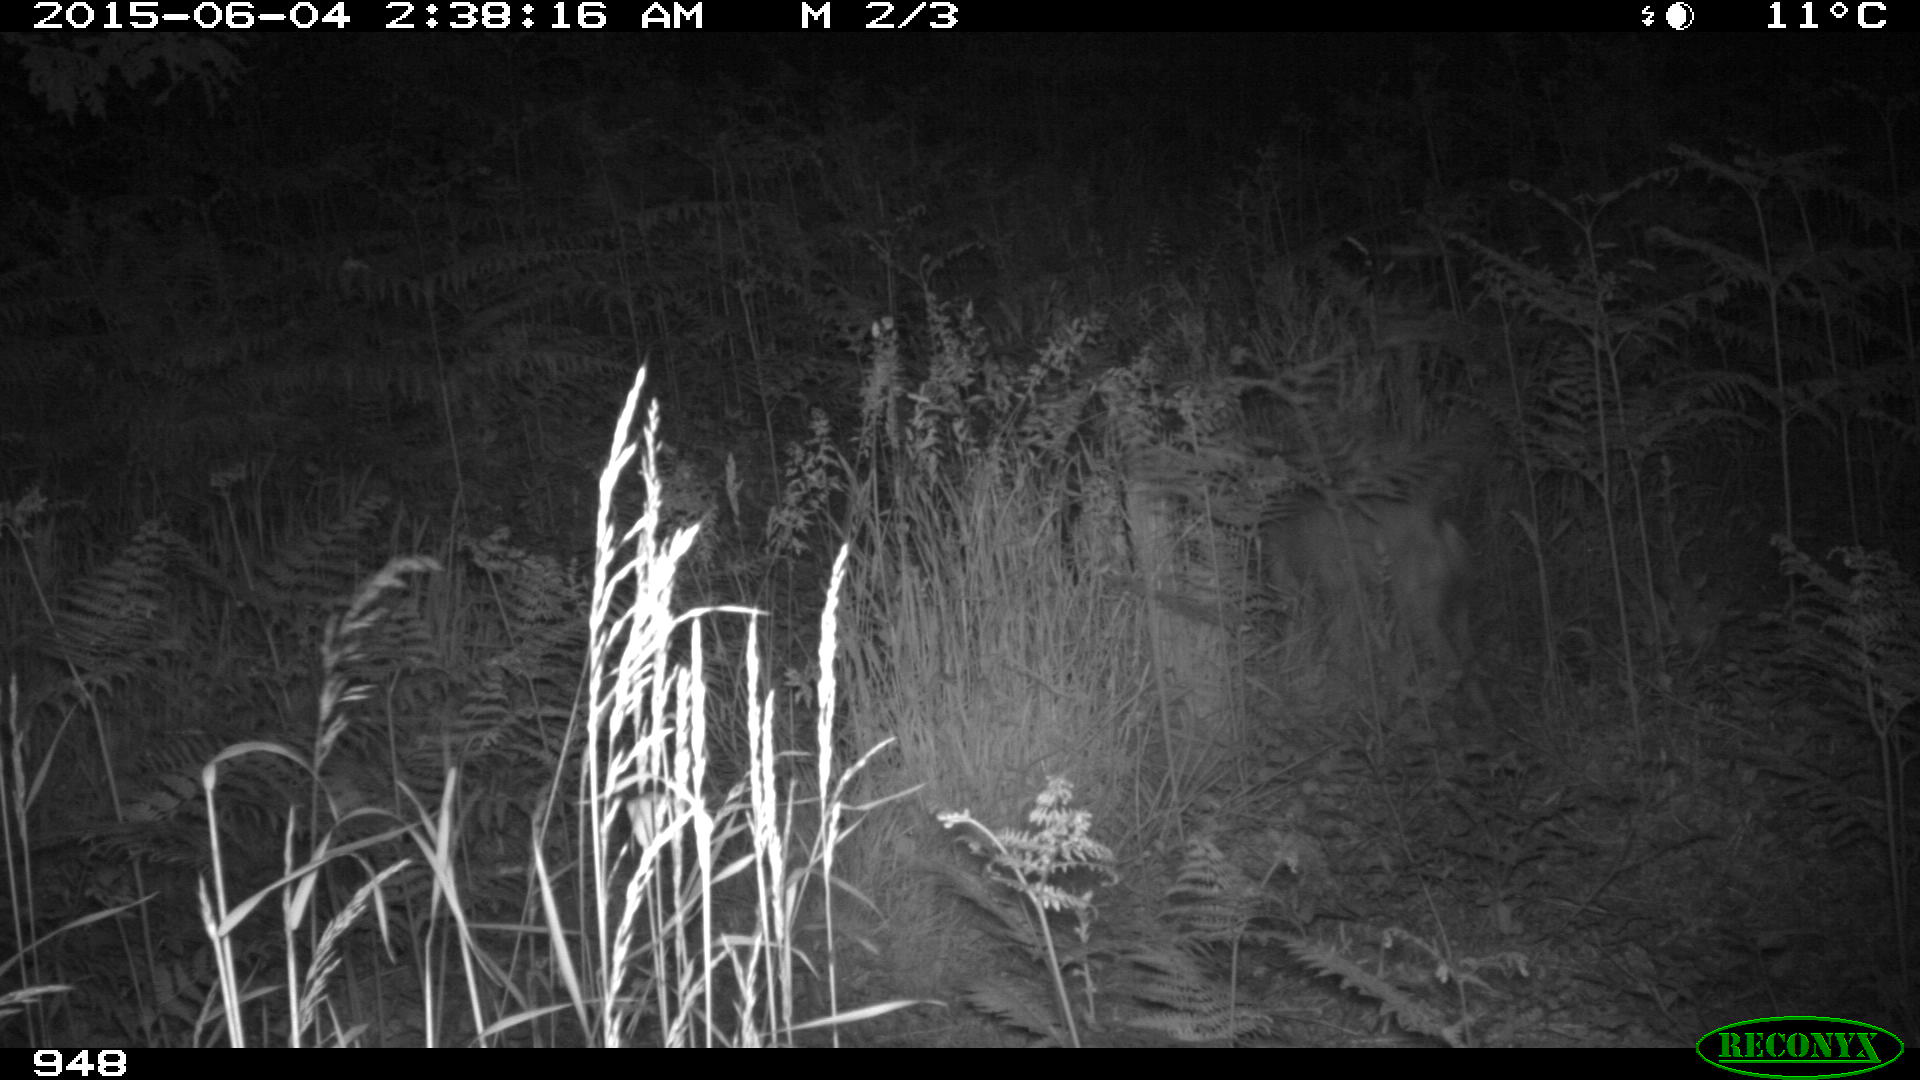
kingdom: Animalia
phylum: Chordata
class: Mammalia
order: Carnivora
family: Canidae
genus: Canis
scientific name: Canis lupus
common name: Gray wolf
